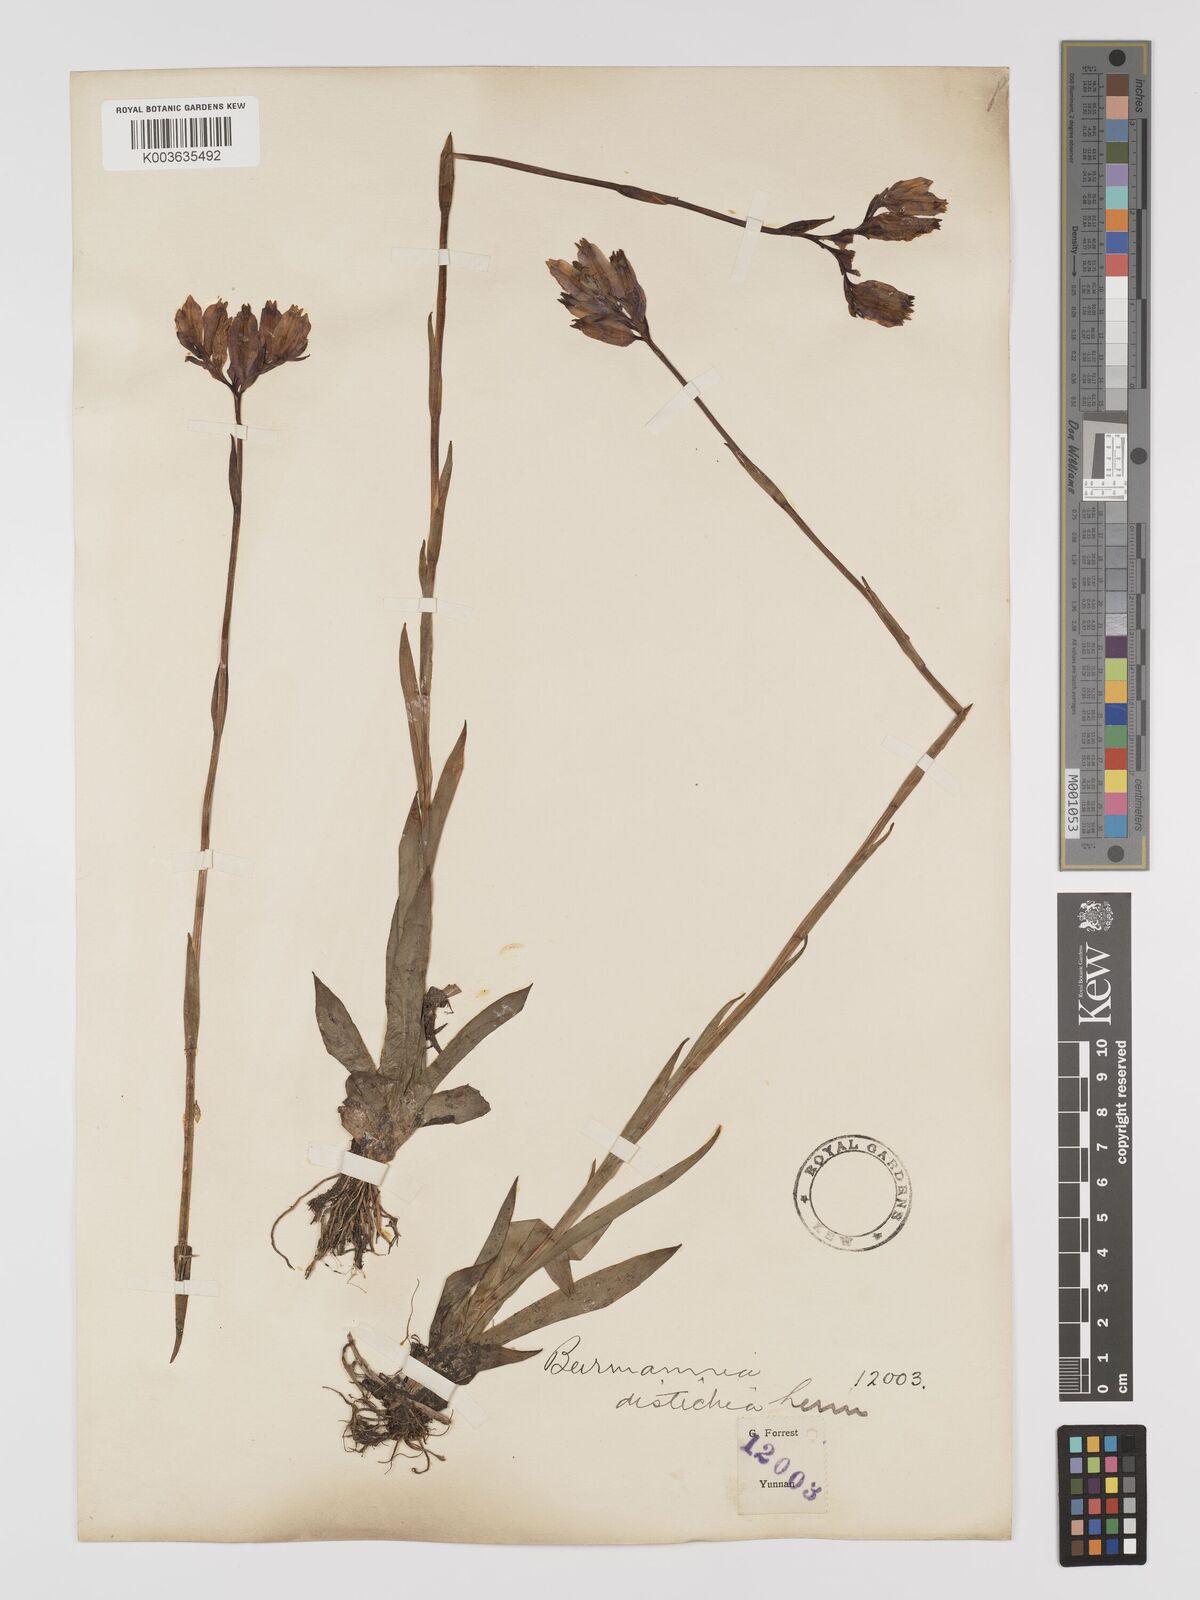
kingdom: Plantae
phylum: Tracheophyta
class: Liliopsida
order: Dioscoreales
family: Burmanniaceae
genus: Burmannia
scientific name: Burmannia disticha
